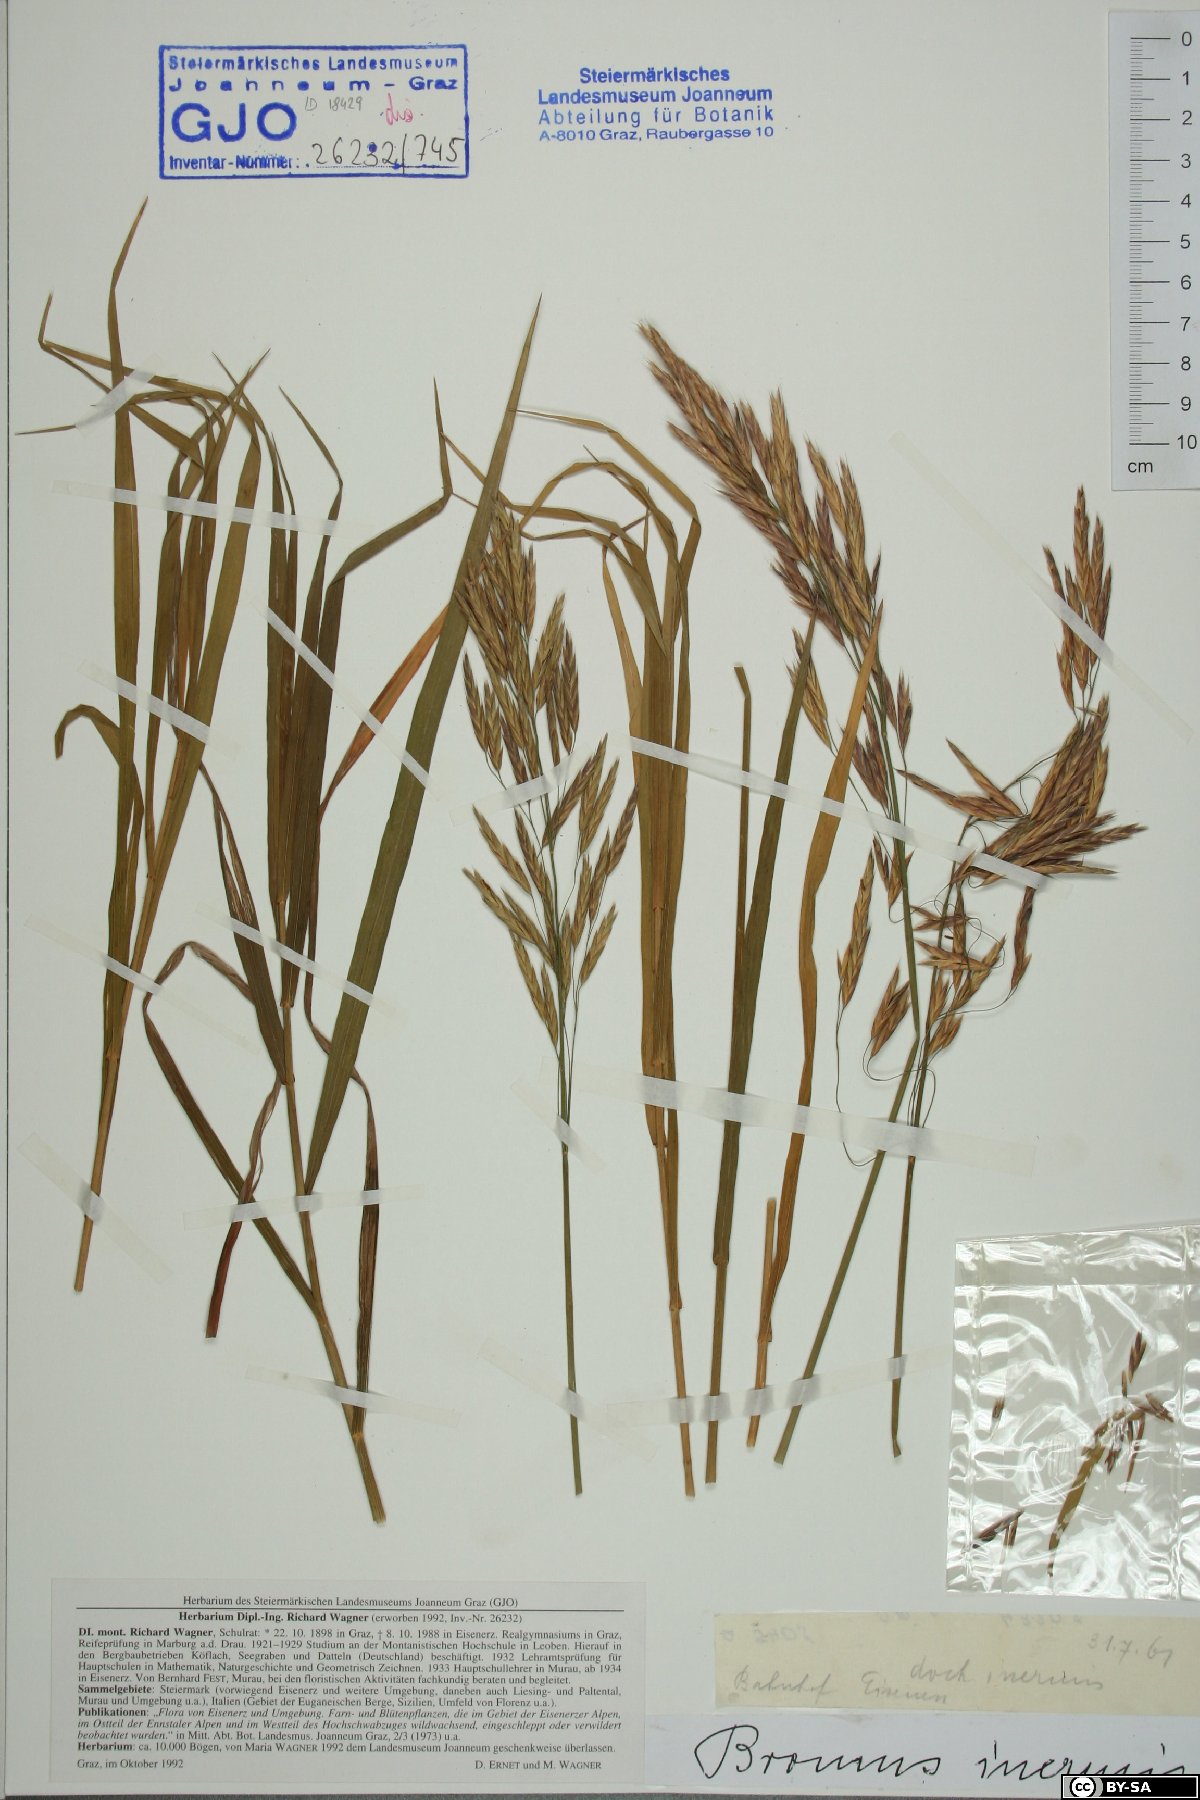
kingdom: Plantae
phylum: Tracheophyta
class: Liliopsida
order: Poales
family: Poaceae
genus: Bromus
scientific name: Bromus inermis
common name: Smooth brome
